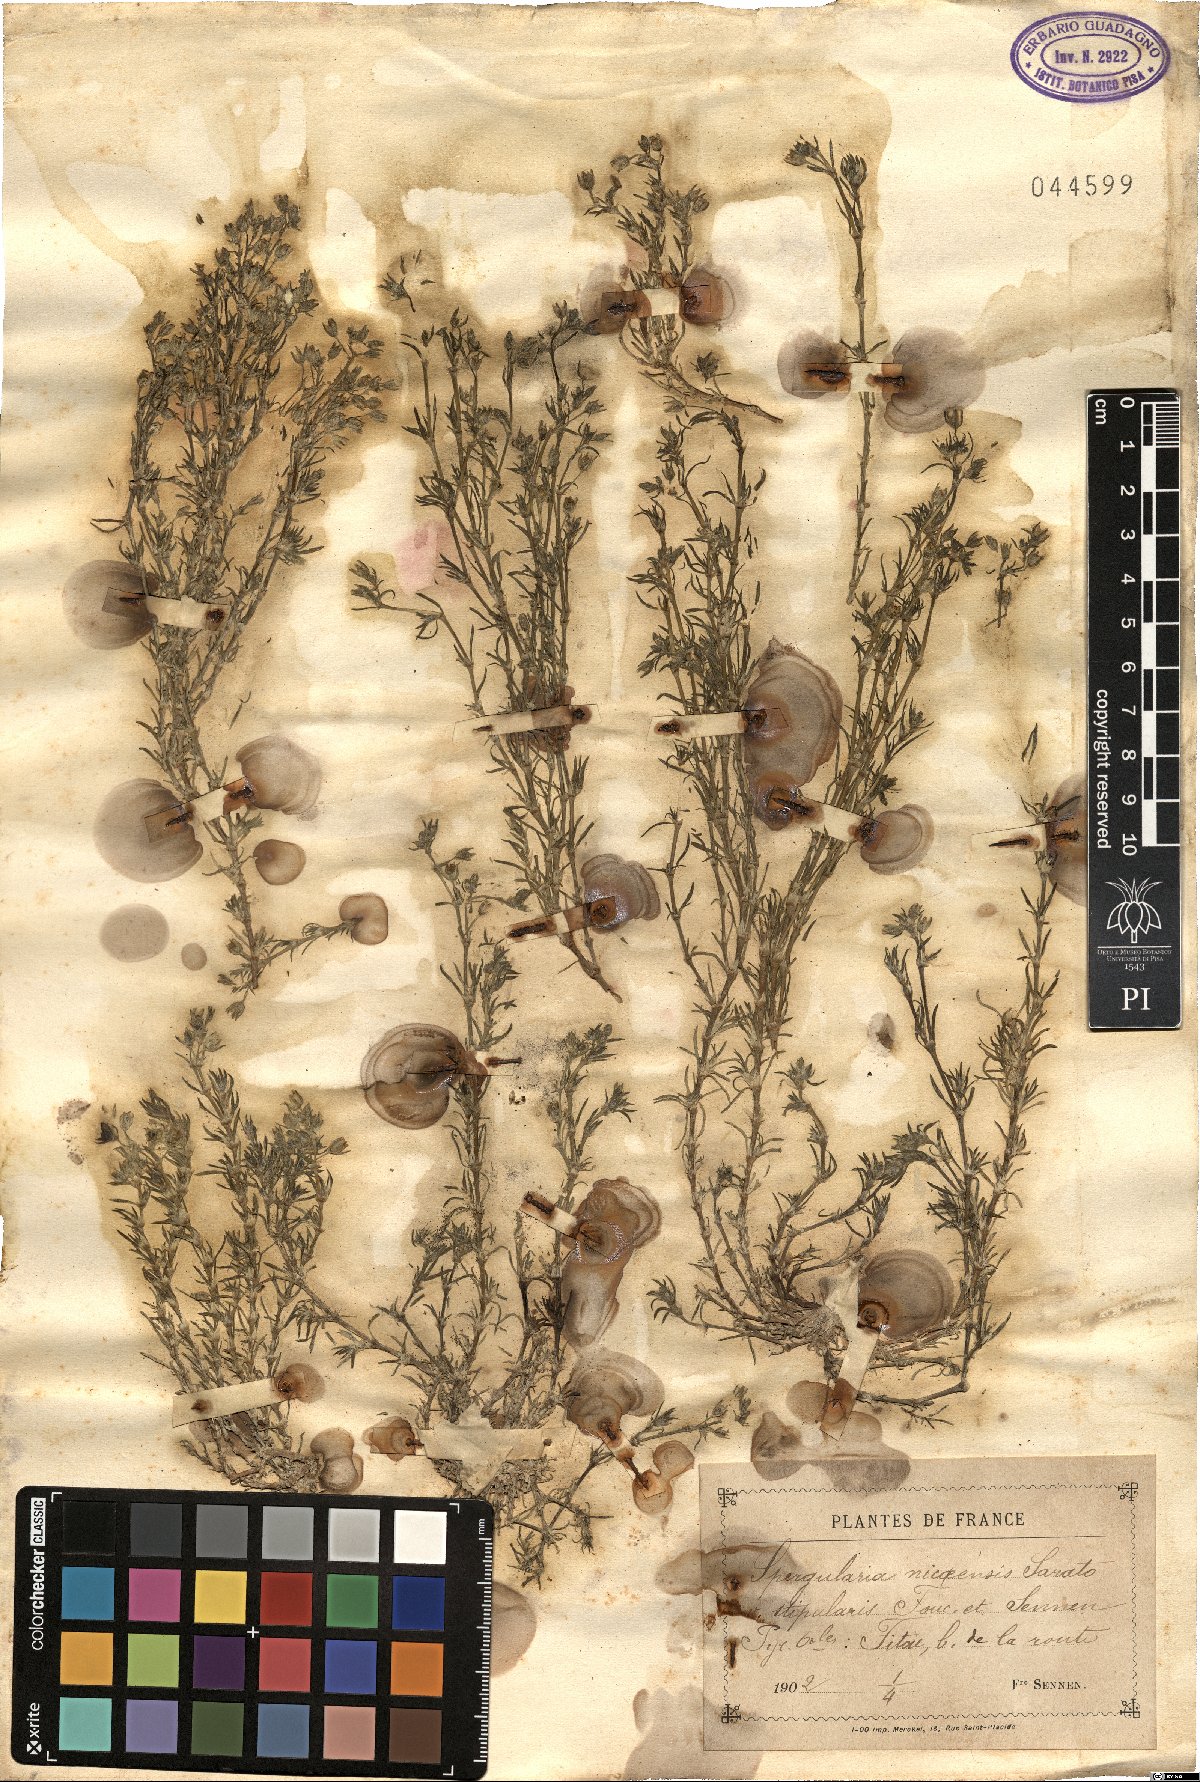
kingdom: Plantae
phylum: Tracheophyta
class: Magnoliopsida
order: Caryophyllales
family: Caryophyllaceae
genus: Spergularia
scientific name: Spergularia nicaeensis
